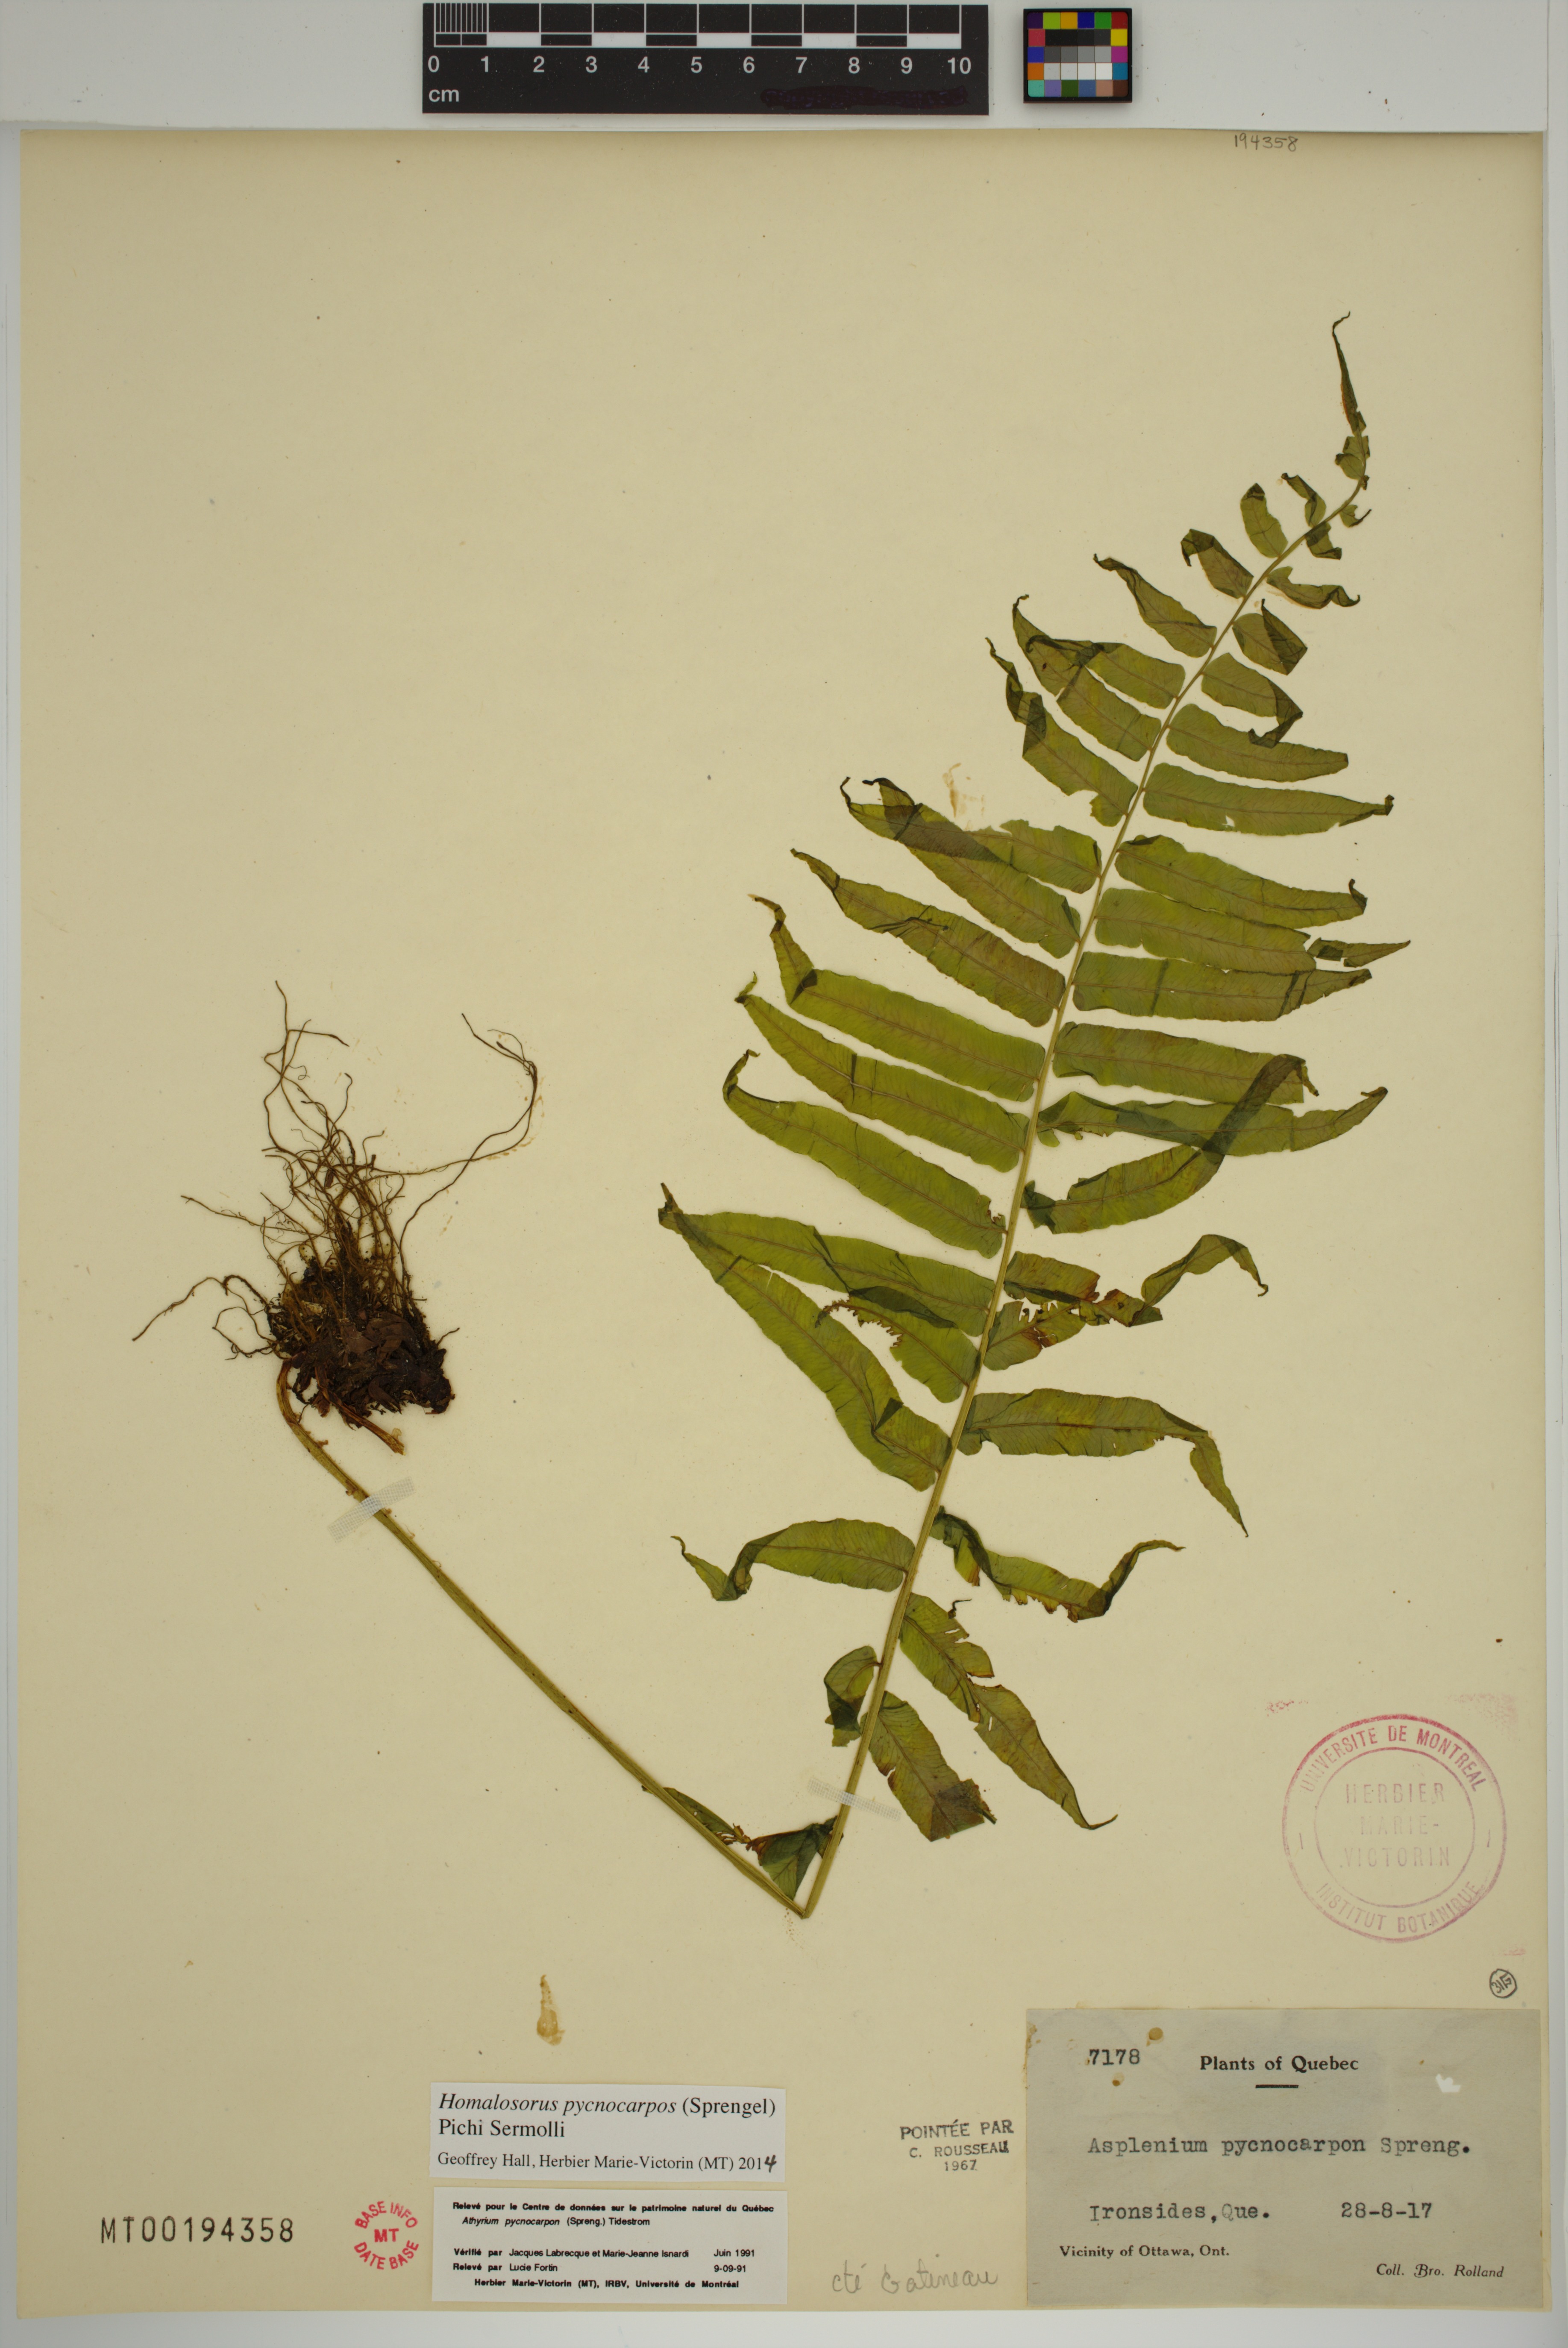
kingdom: Plantae
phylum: Tracheophyta
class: Polypodiopsida
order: Polypodiales
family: Diplaziopsidaceae
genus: Homalosorus
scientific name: Homalosorus pycnocarpos
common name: Glade fern
